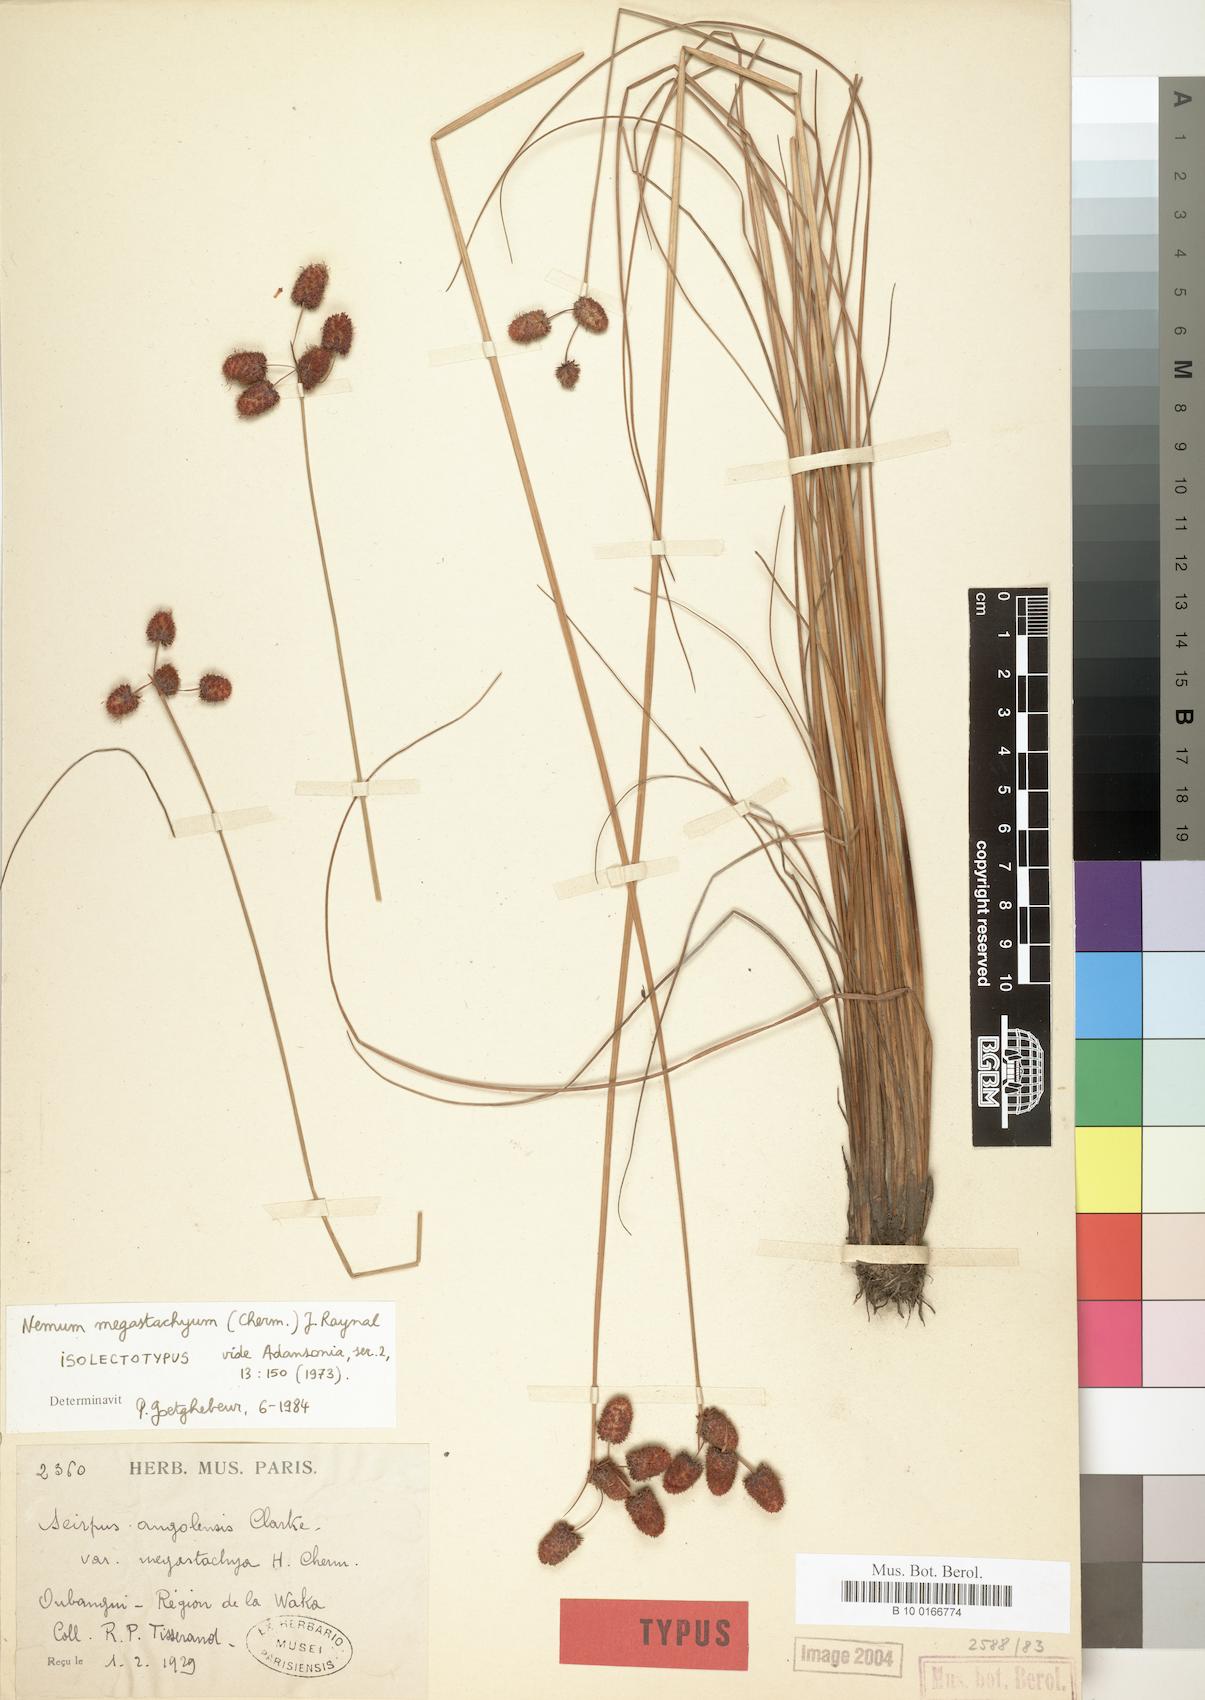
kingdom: Plantae
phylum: Tracheophyta
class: Liliopsida
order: Poales
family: Cyperaceae
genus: Bulbostylis
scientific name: Bulbostylis brunneoacuminata
